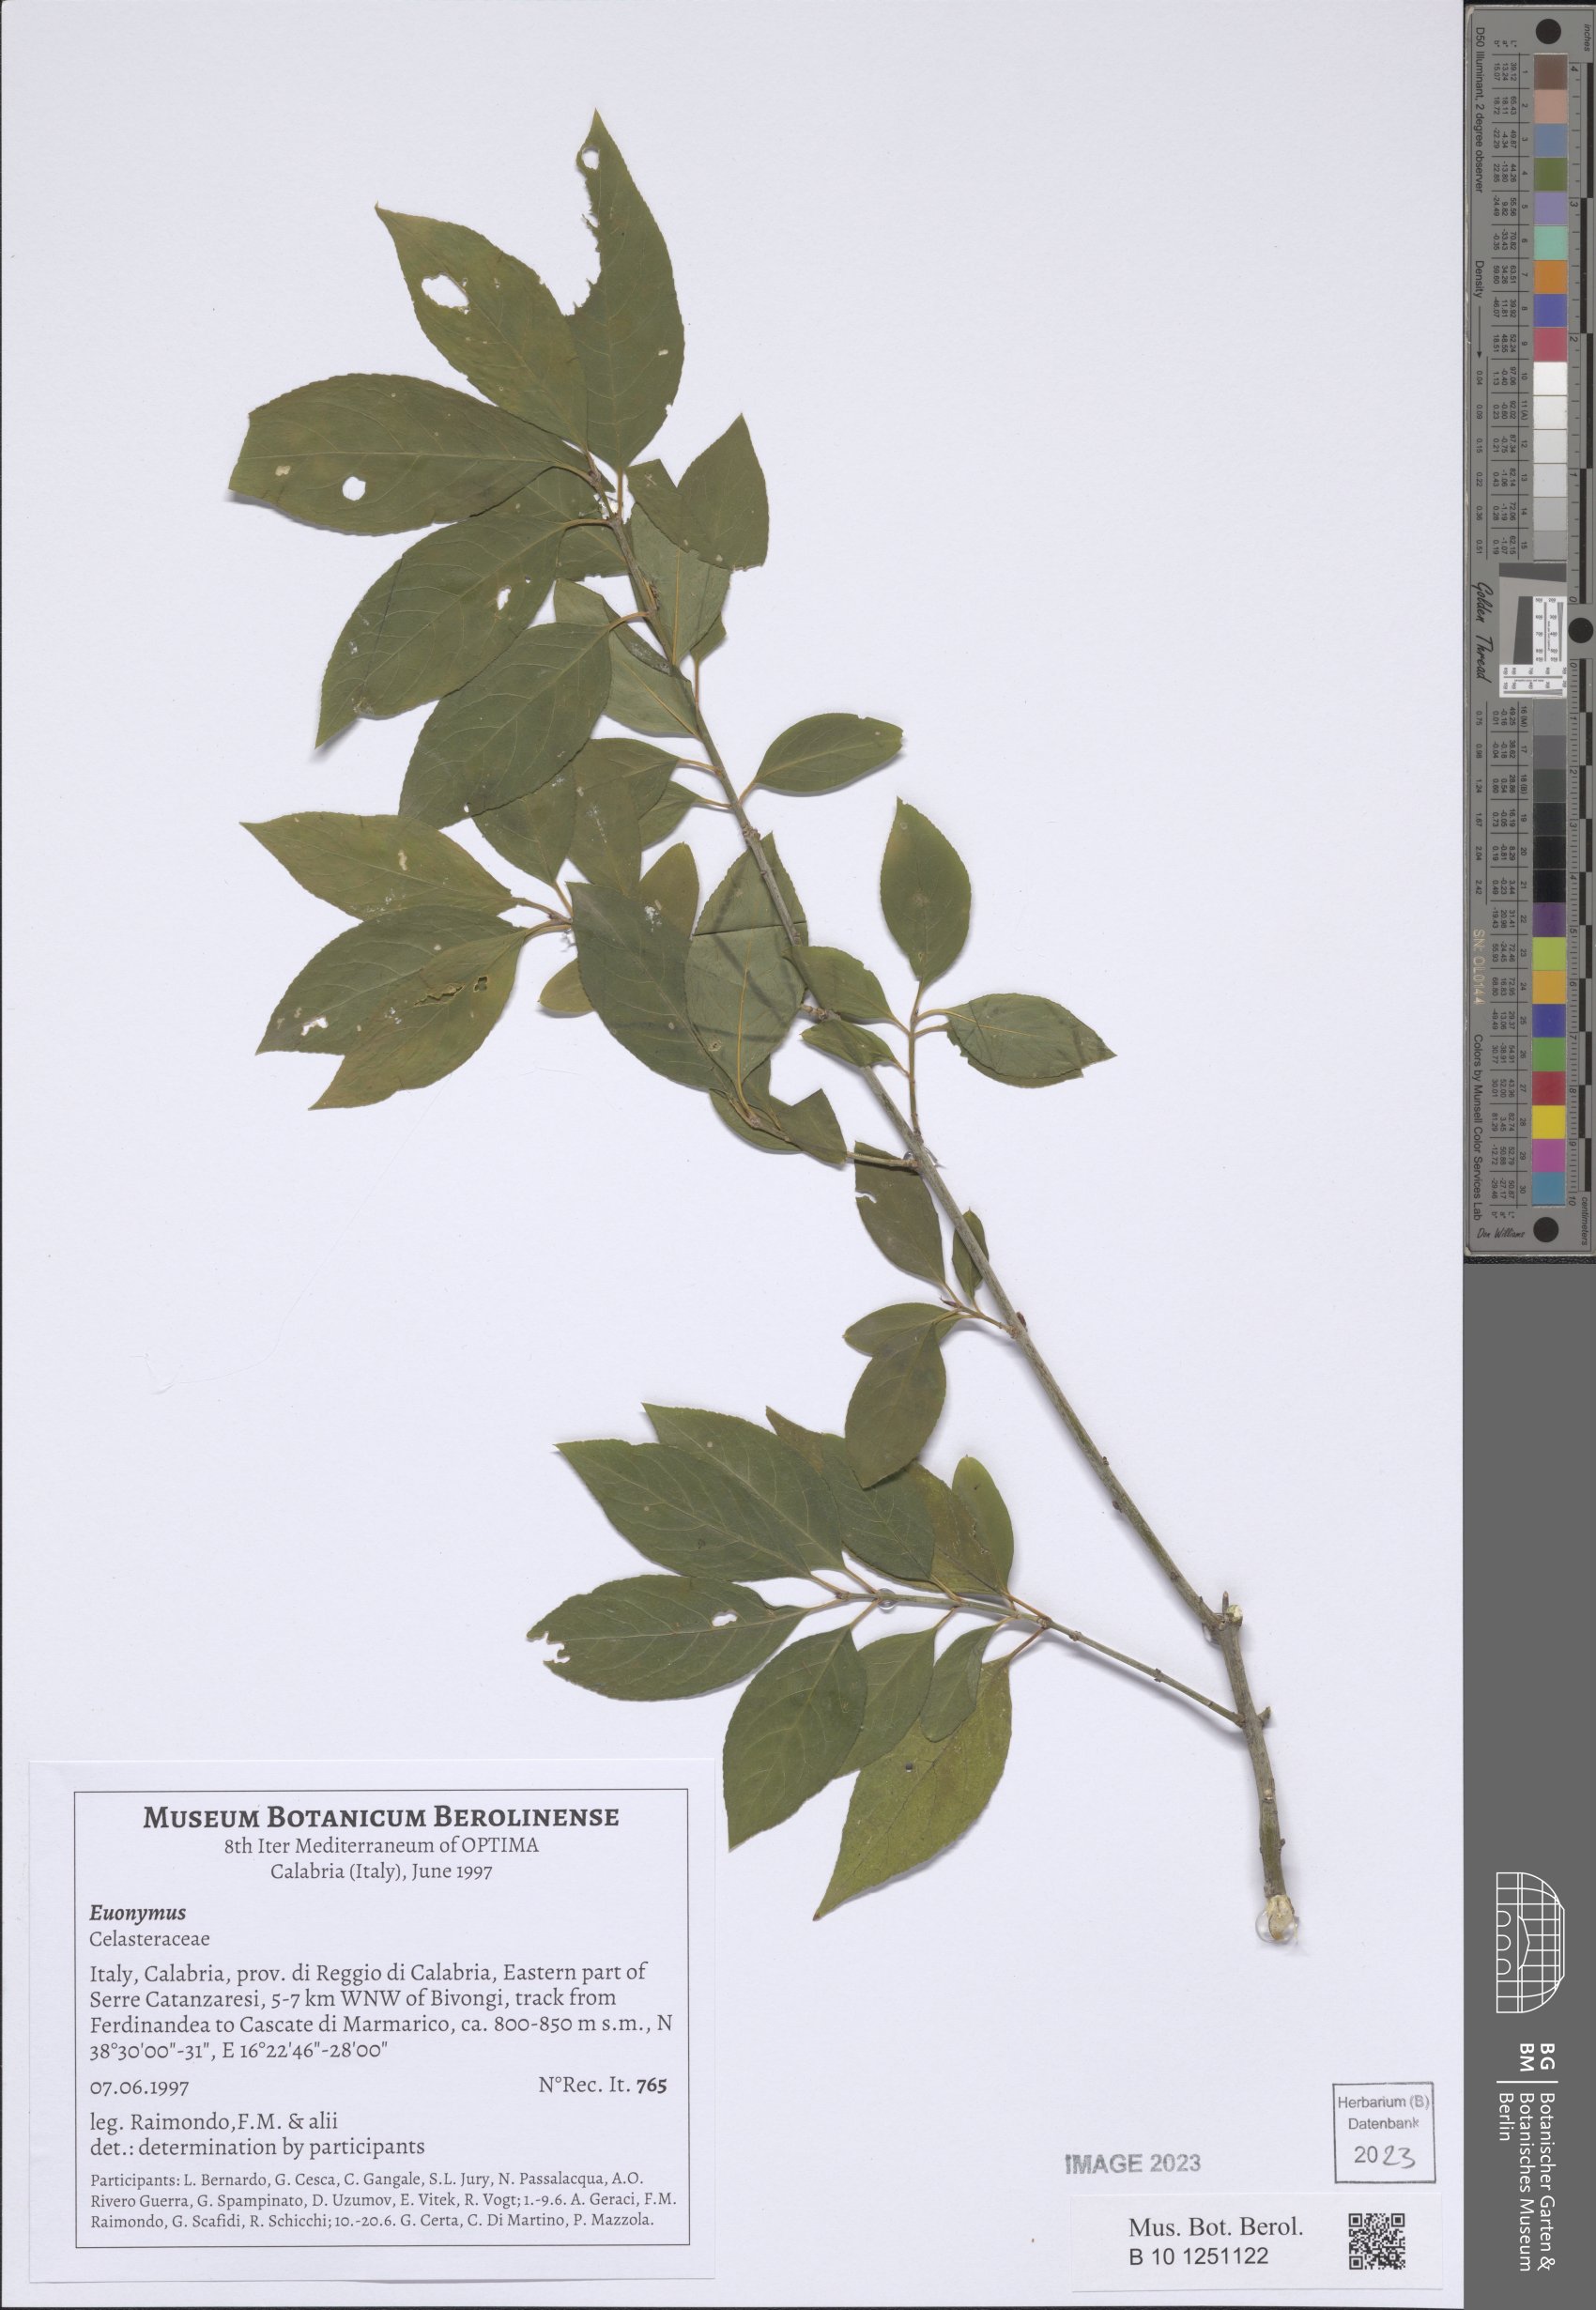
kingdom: Plantae
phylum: Tracheophyta
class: Magnoliopsida
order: Celastrales
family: Celastraceae
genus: Euonymus
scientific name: Euonymus
